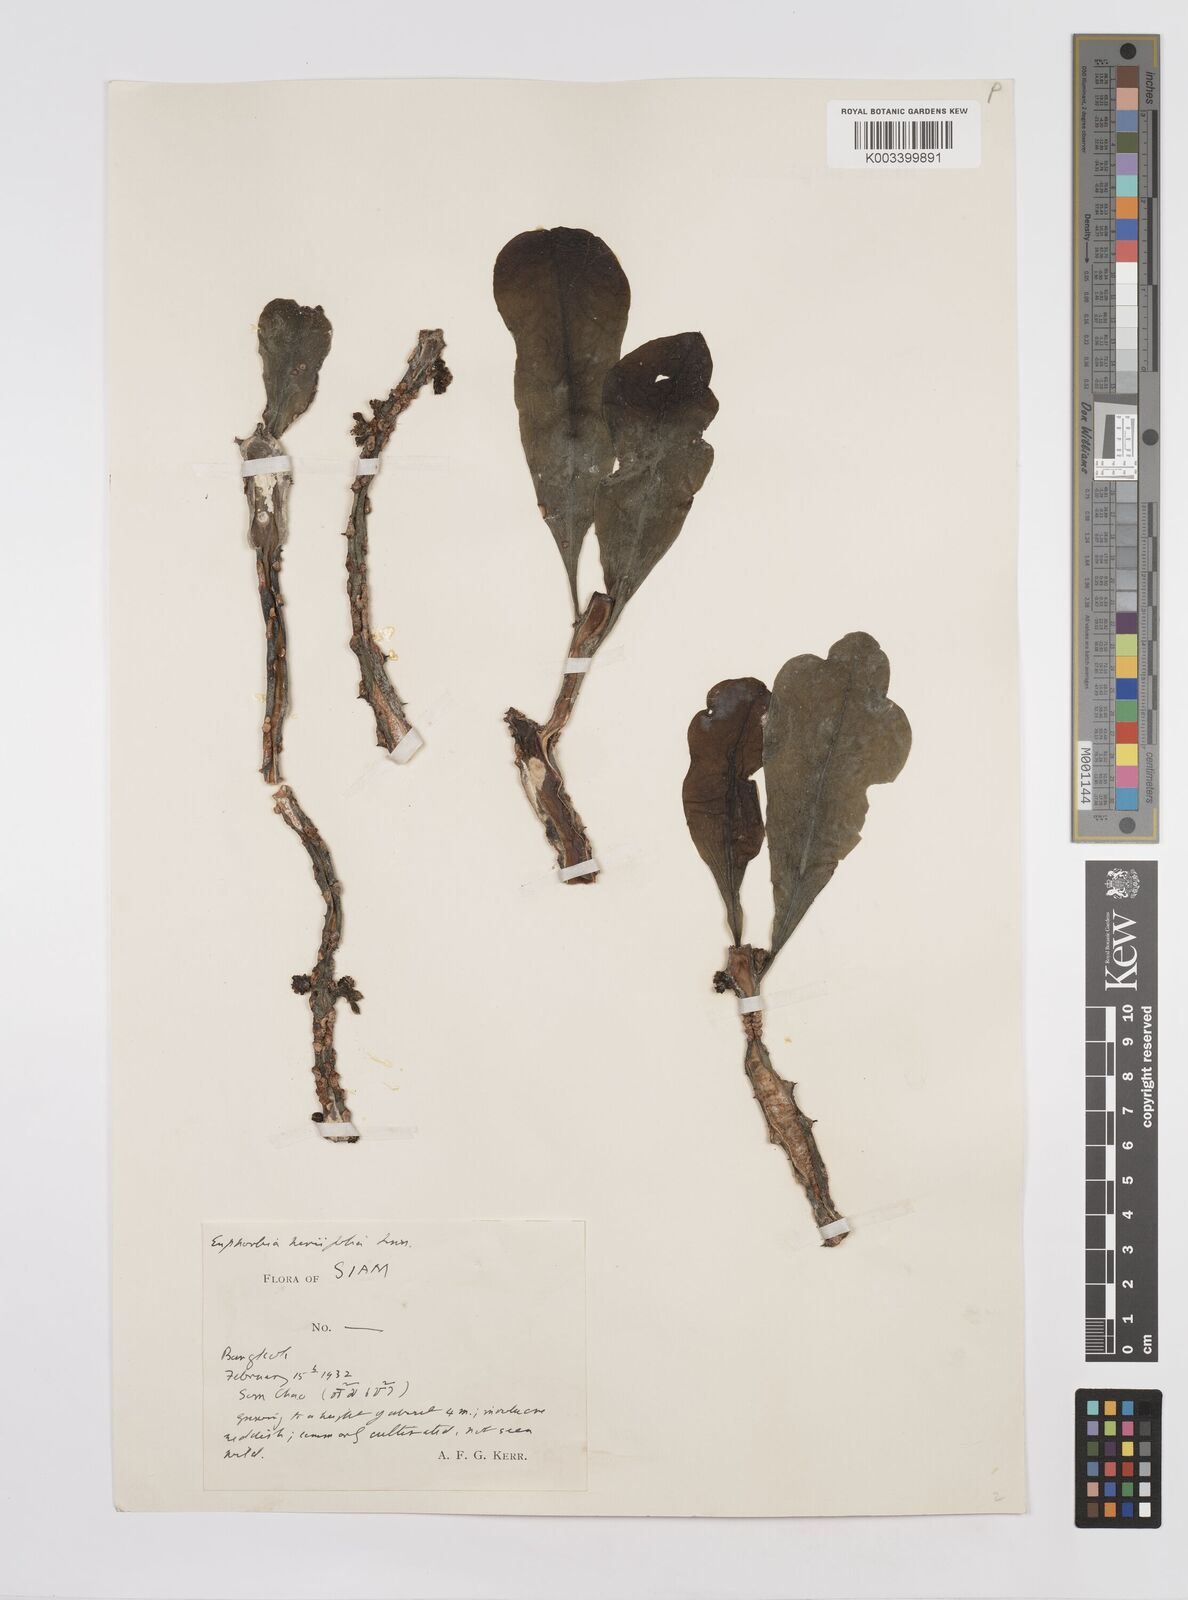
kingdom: Plantae
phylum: Tracheophyta
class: Magnoliopsida
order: Malpighiales
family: Euphorbiaceae
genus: Euphorbia
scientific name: Euphorbia
